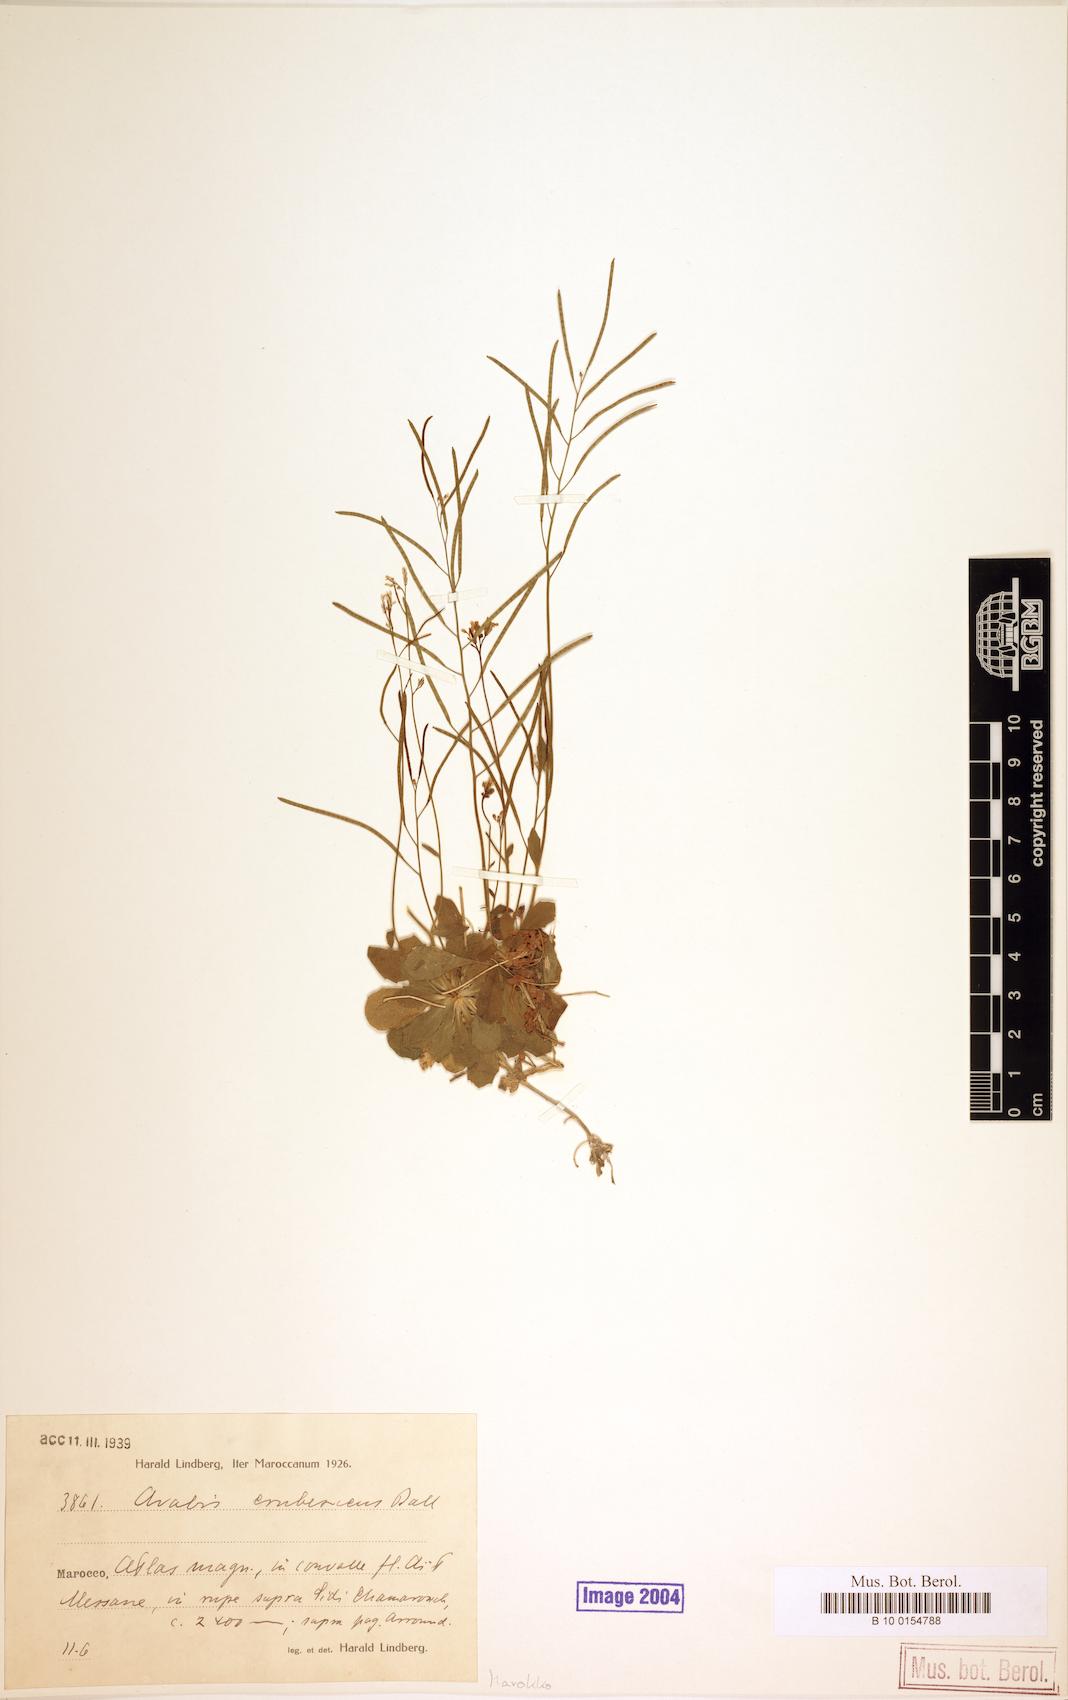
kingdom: Plantae
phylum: Tracheophyta
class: Magnoliopsida
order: Brassicales
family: Brassicaceae
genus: Arabis
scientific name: Arabis erubescens
